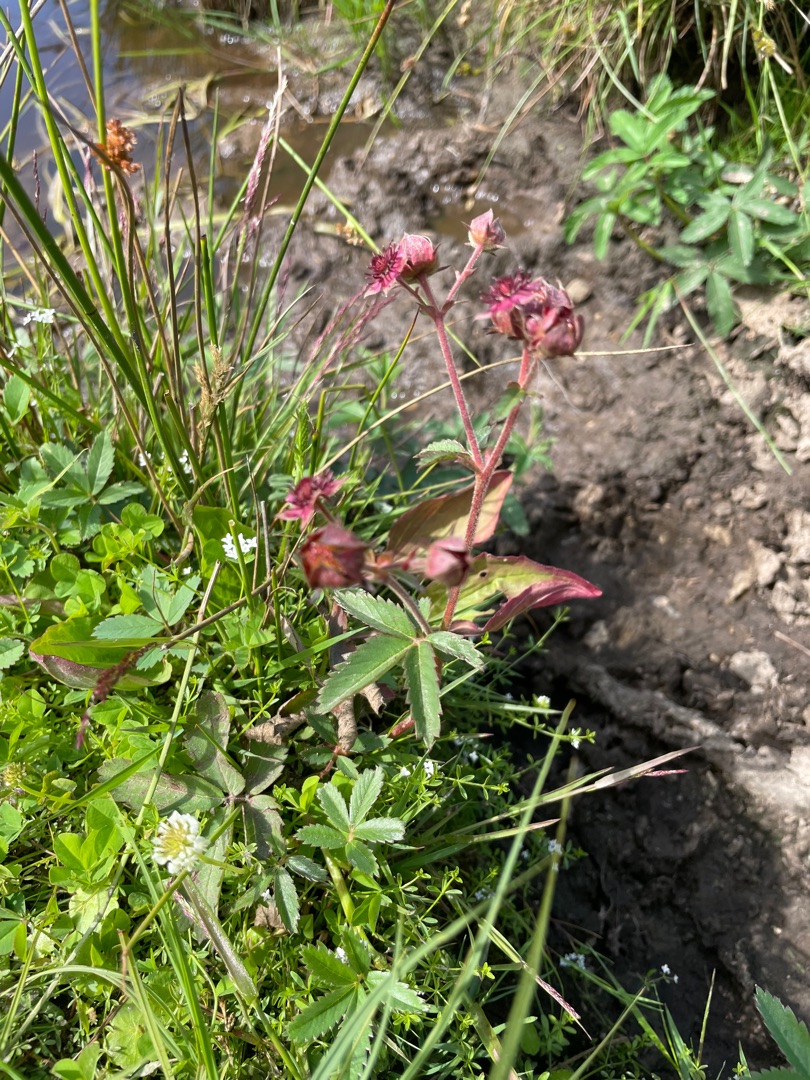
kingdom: Plantae
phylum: Tracheophyta
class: Magnoliopsida
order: Rosales
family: Rosaceae
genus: Comarum
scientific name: Comarum palustre
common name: Kragefod
